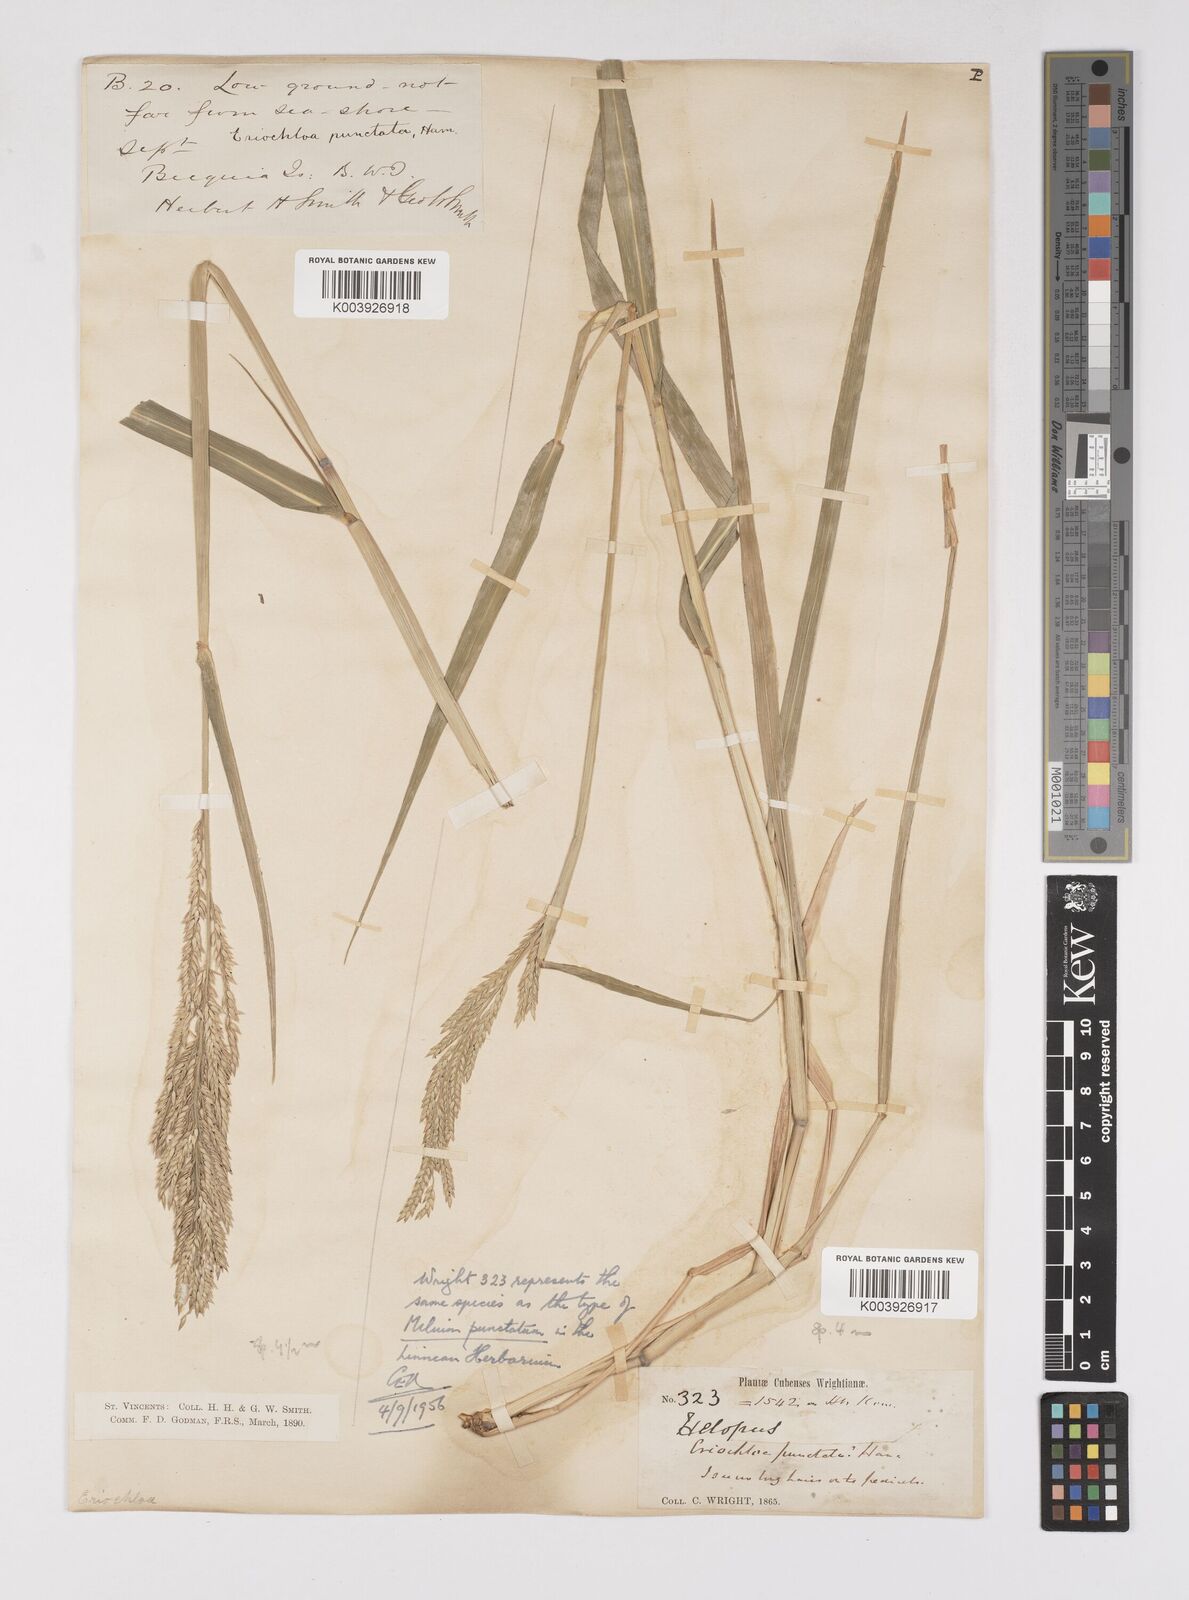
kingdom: Plantae
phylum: Tracheophyta
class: Liliopsida
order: Poales
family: Poaceae
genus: Eriochloa
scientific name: Eriochloa punctata
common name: Louisiana cupgrass
